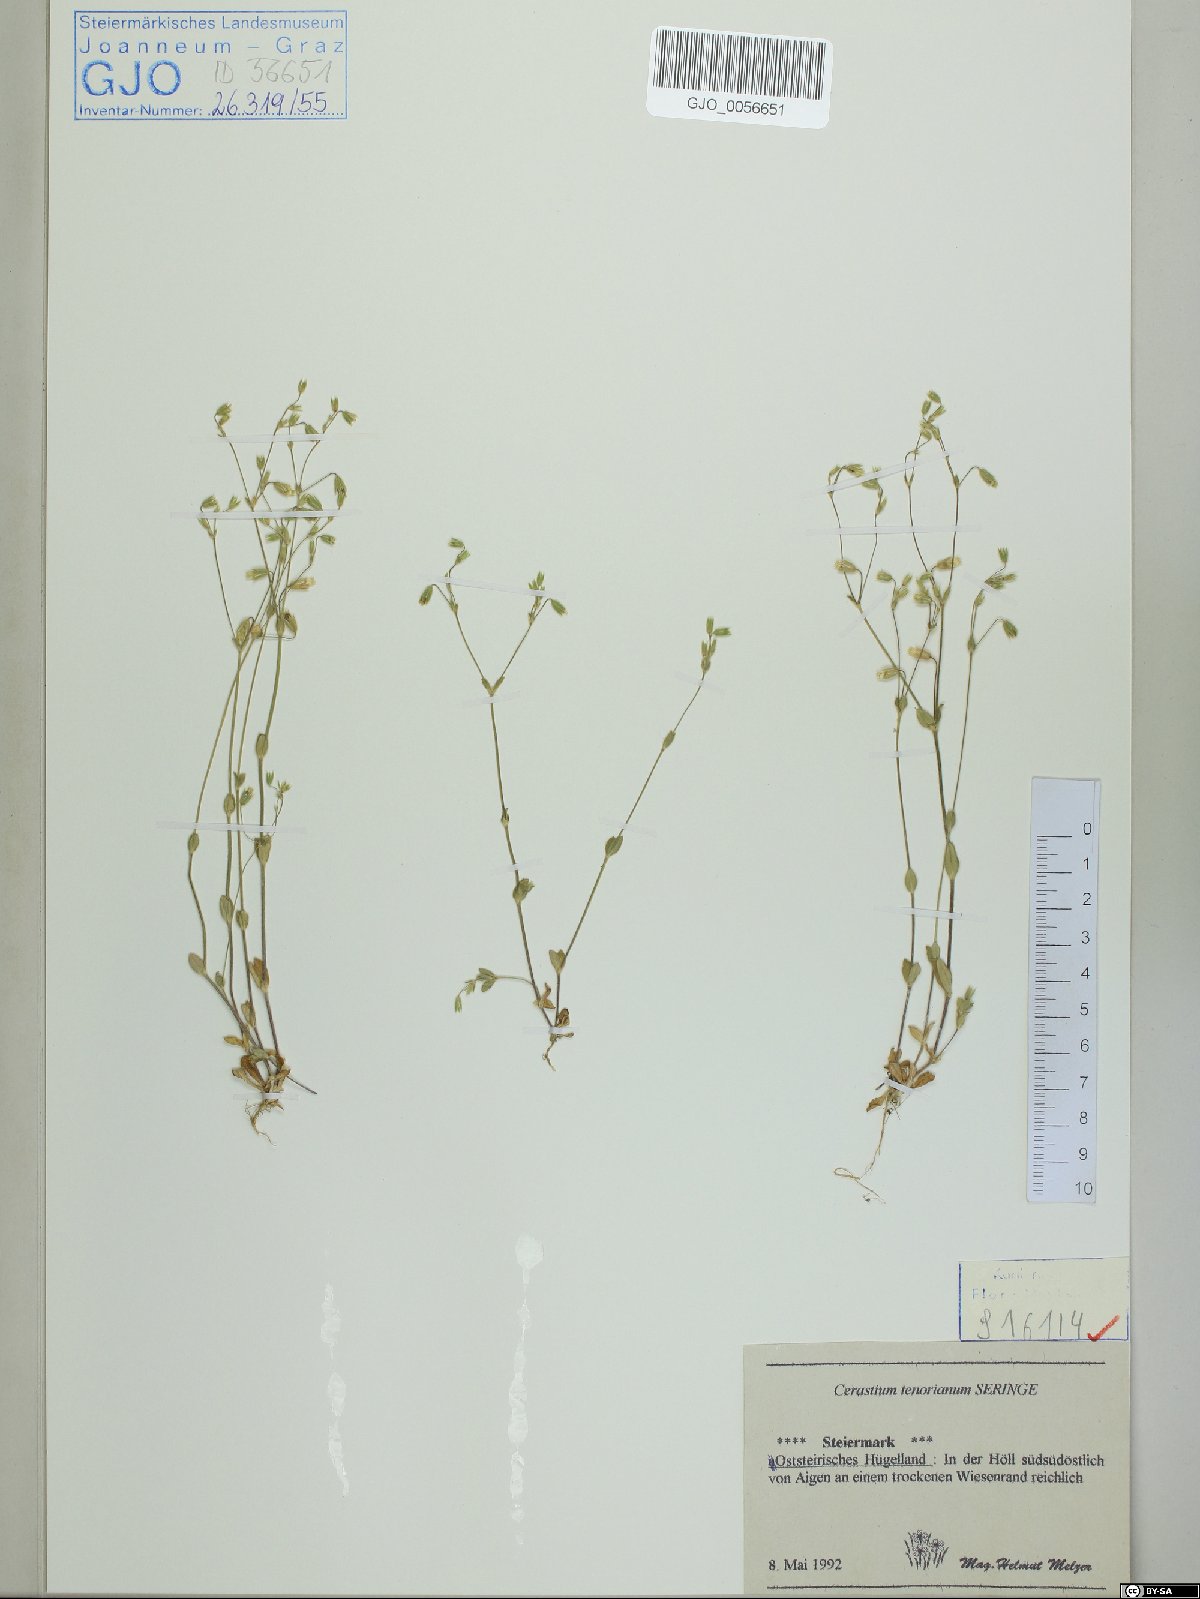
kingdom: Plantae
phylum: Tracheophyta
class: Magnoliopsida
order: Caryophyllales
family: Caryophyllaceae
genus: Cerastium
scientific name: Cerastium tenoreanum
